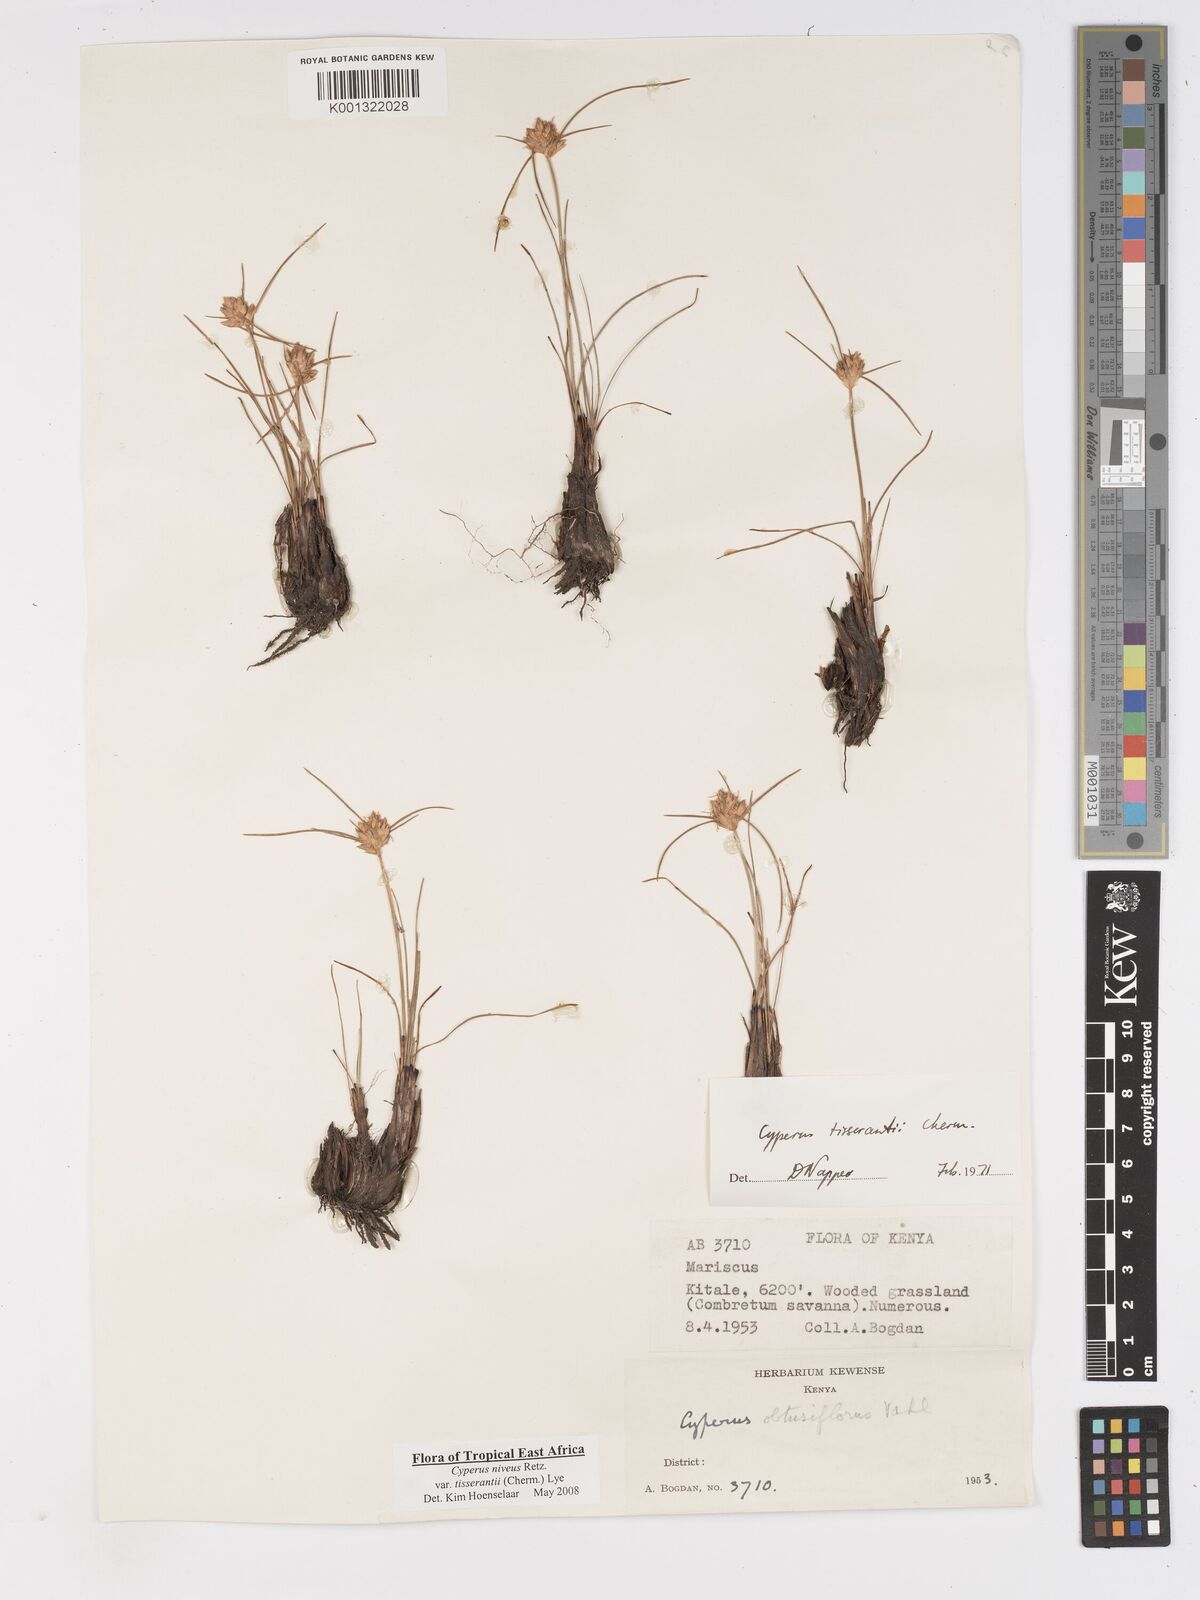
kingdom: Plantae
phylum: Tracheophyta
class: Liliopsida
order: Poales
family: Cyperaceae
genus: Cyperus
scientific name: Cyperus niveus
